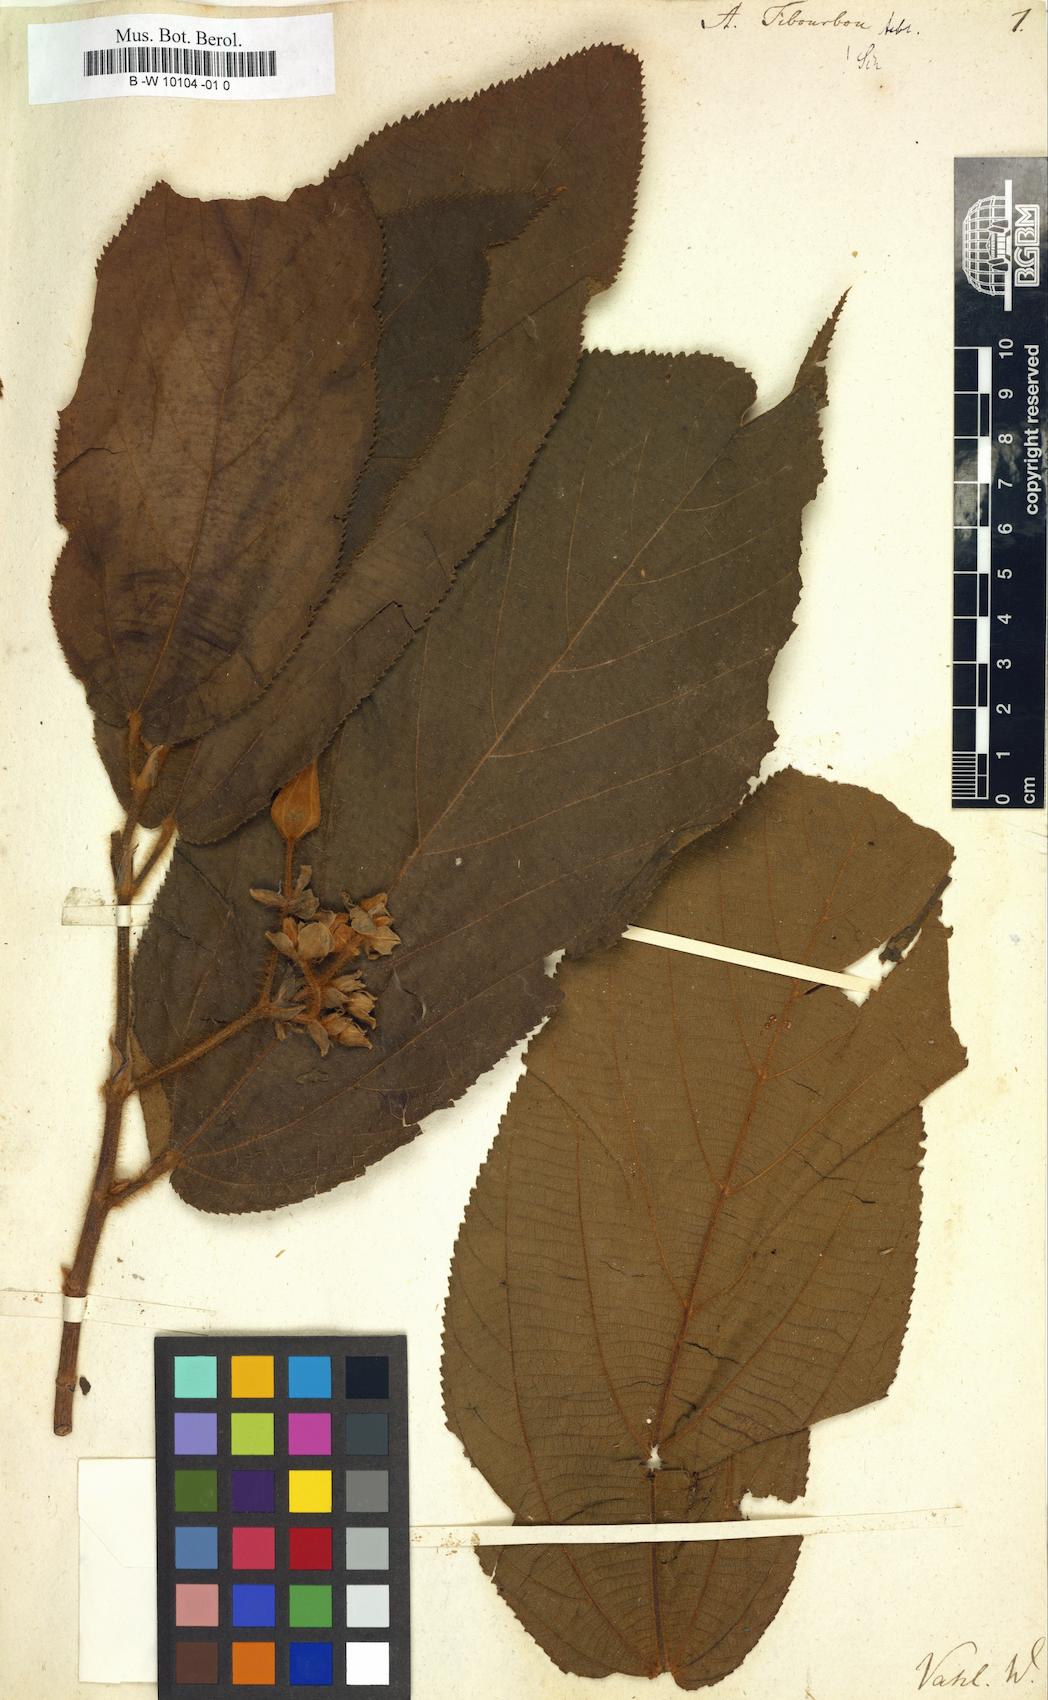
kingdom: Plantae
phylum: Tracheophyta
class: Magnoliopsida
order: Malvales
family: Malvaceae
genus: Apeiba
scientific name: Apeiba tibourbou
